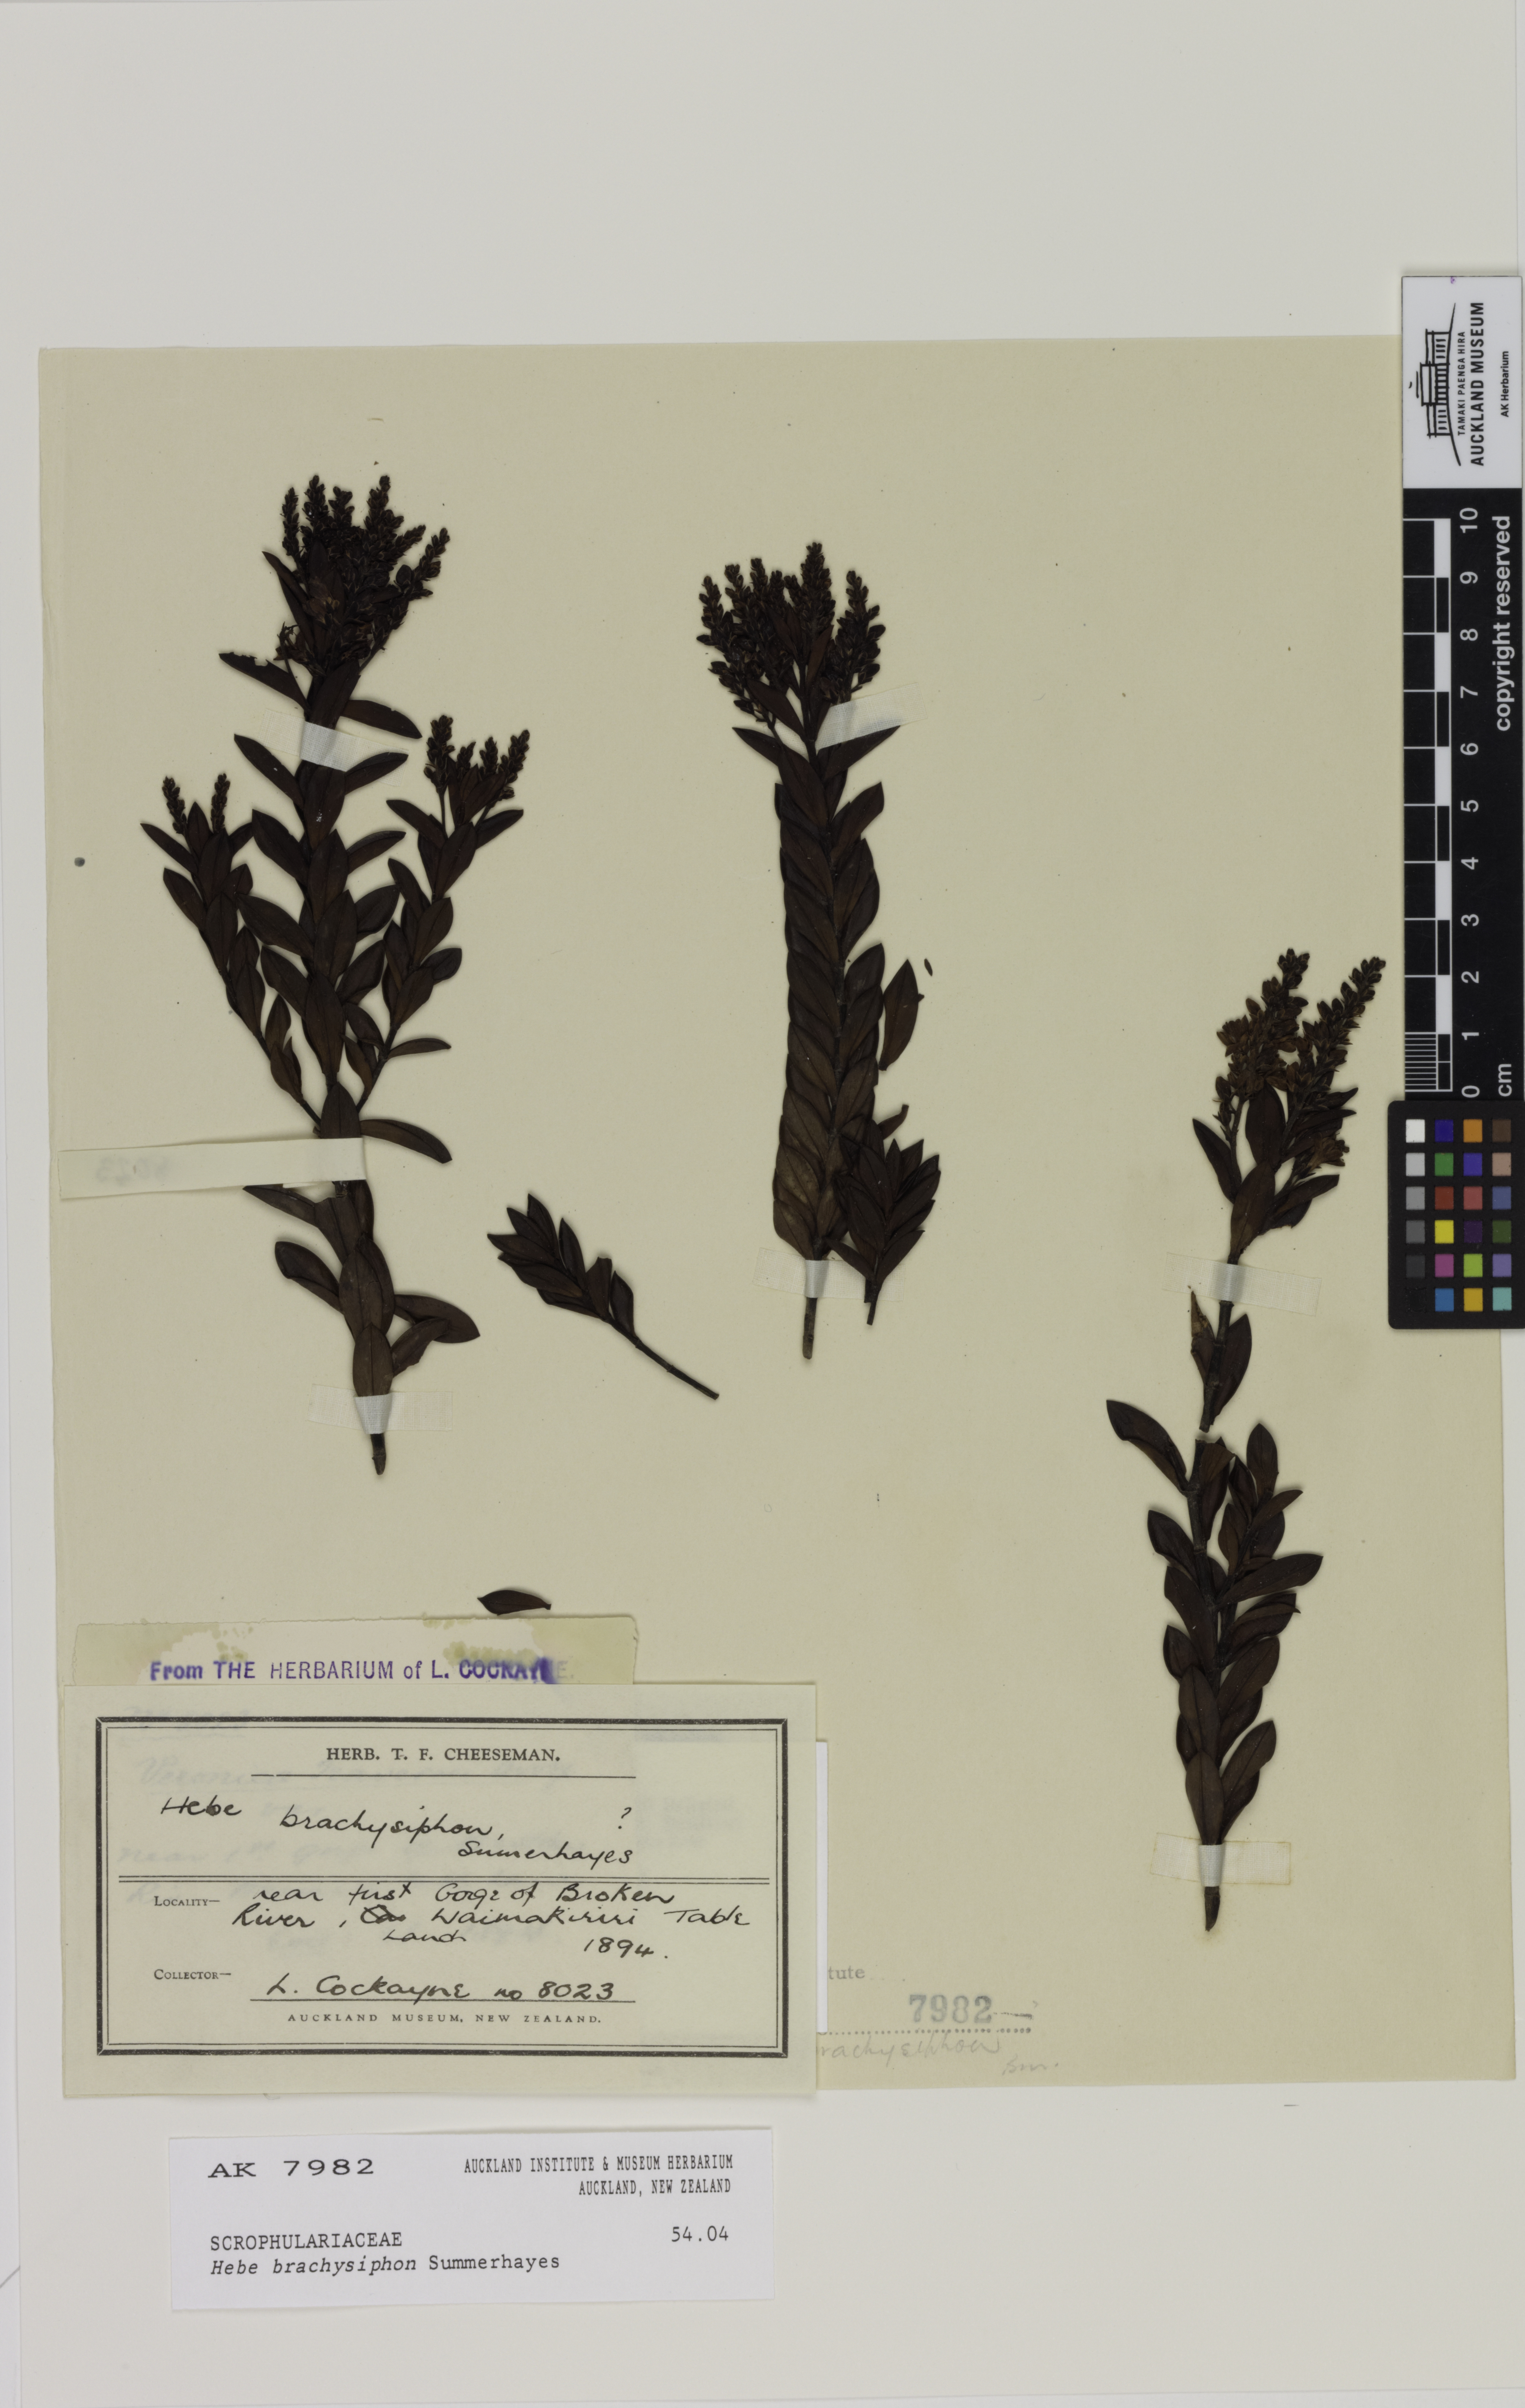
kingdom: Plantae
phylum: Tracheophyta
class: Magnoliopsida
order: Lamiales
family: Plantaginaceae
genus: Veronica
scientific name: Veronica brachysiphon
